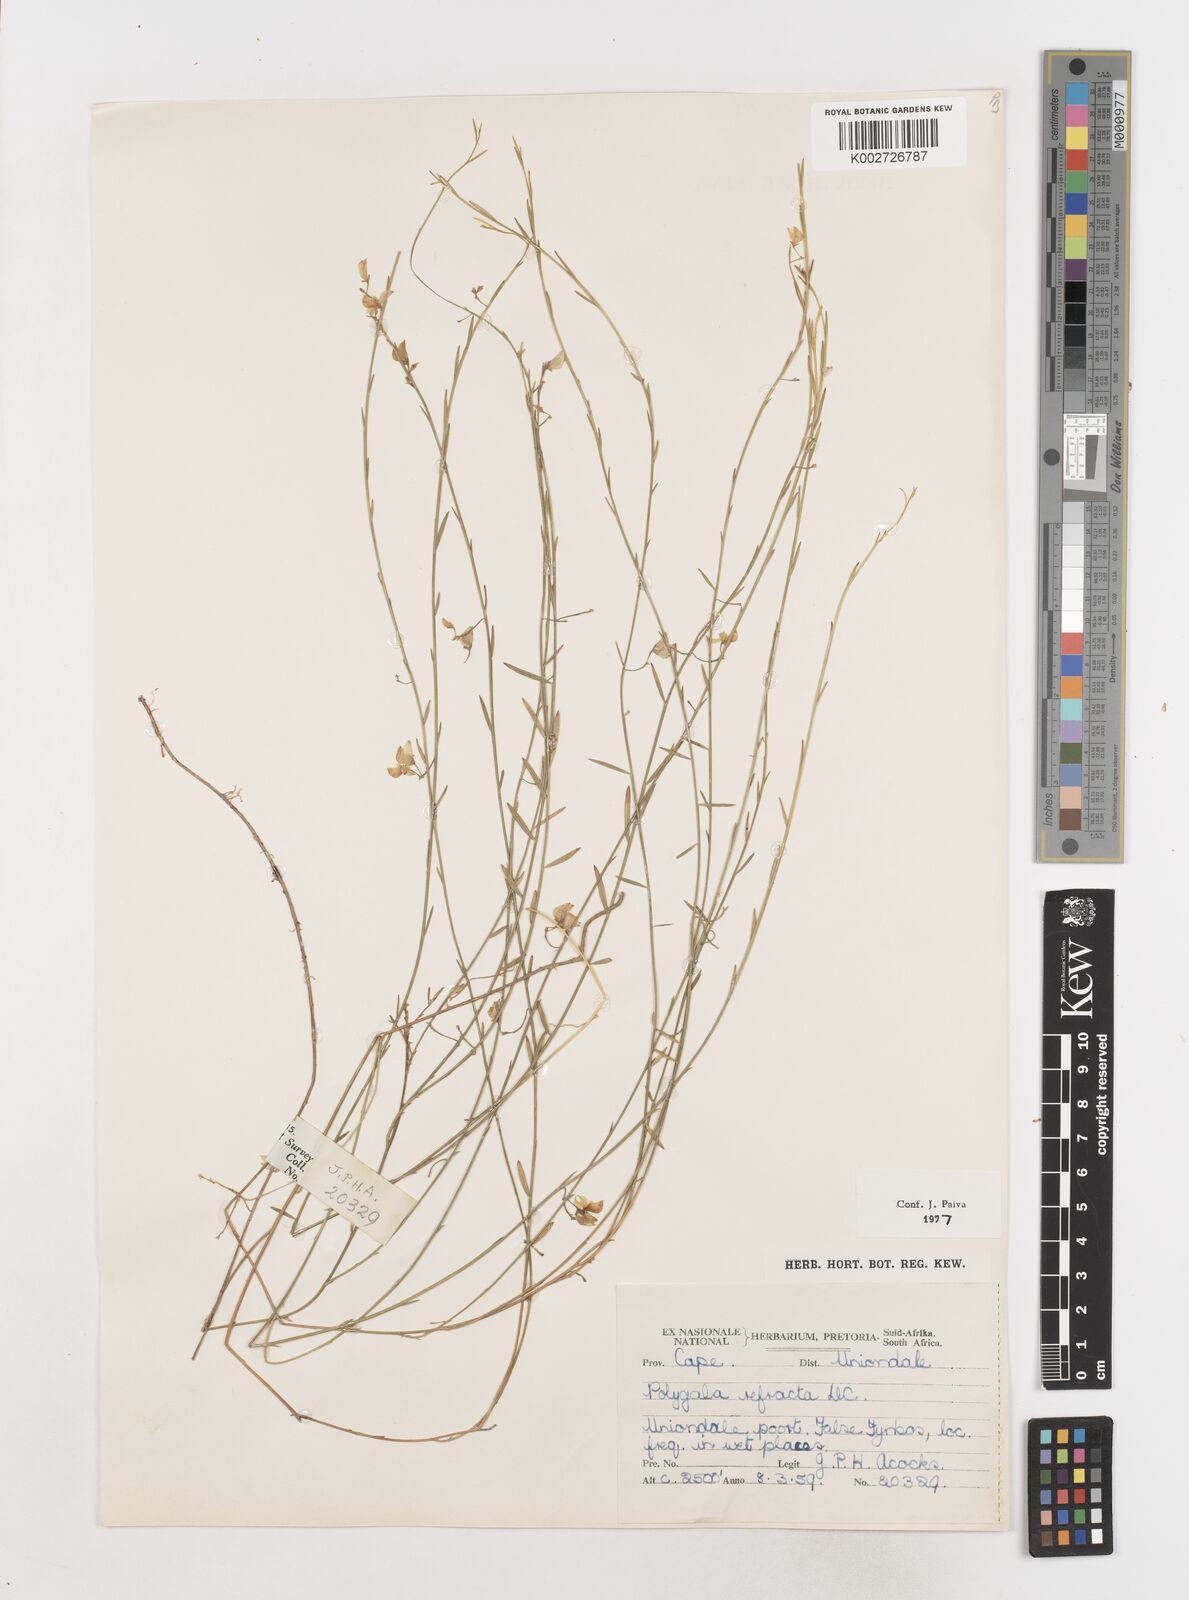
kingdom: Plantae
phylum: Tracheophyta
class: Magnoliopsida
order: Fabales
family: Polygalaceae
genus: Polygala
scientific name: Polygala refracta
